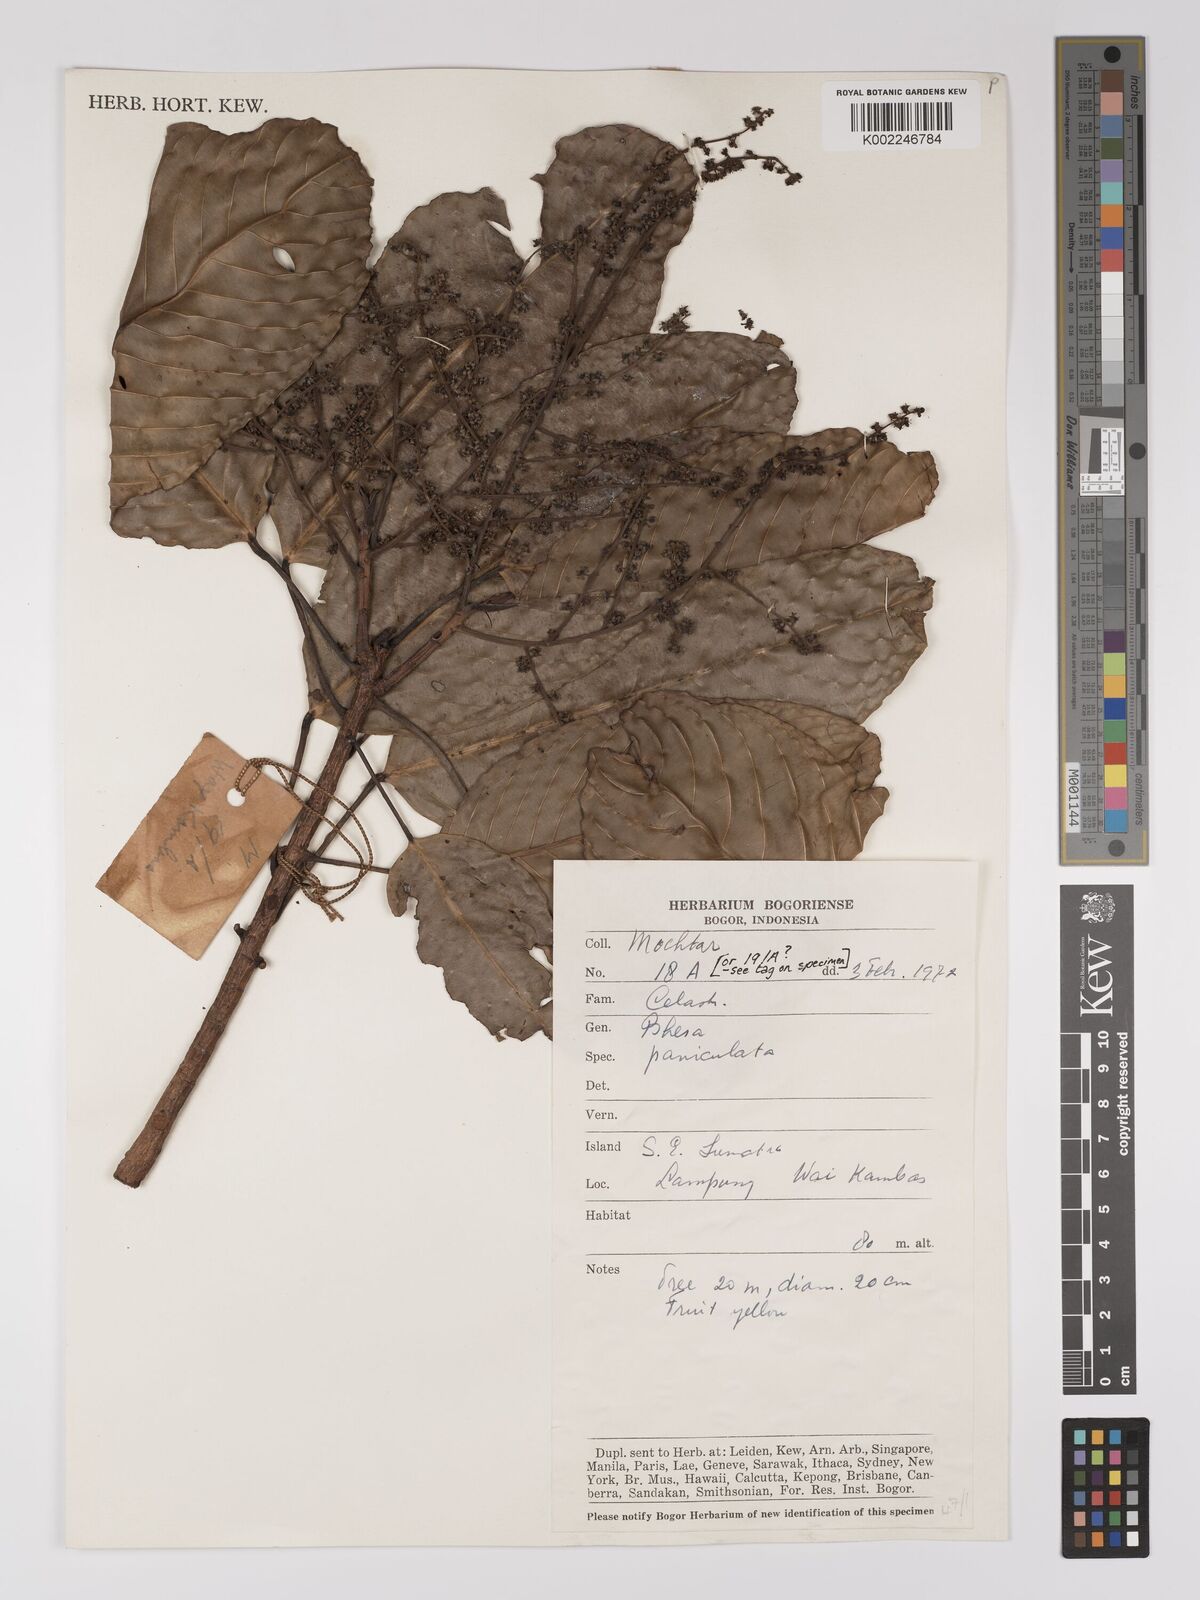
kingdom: Plantae
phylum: Tracheophyta
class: Magnoliopsida
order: Malpighiales
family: Centroplacaceae
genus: Bhesa
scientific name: Bhesa paniculata
